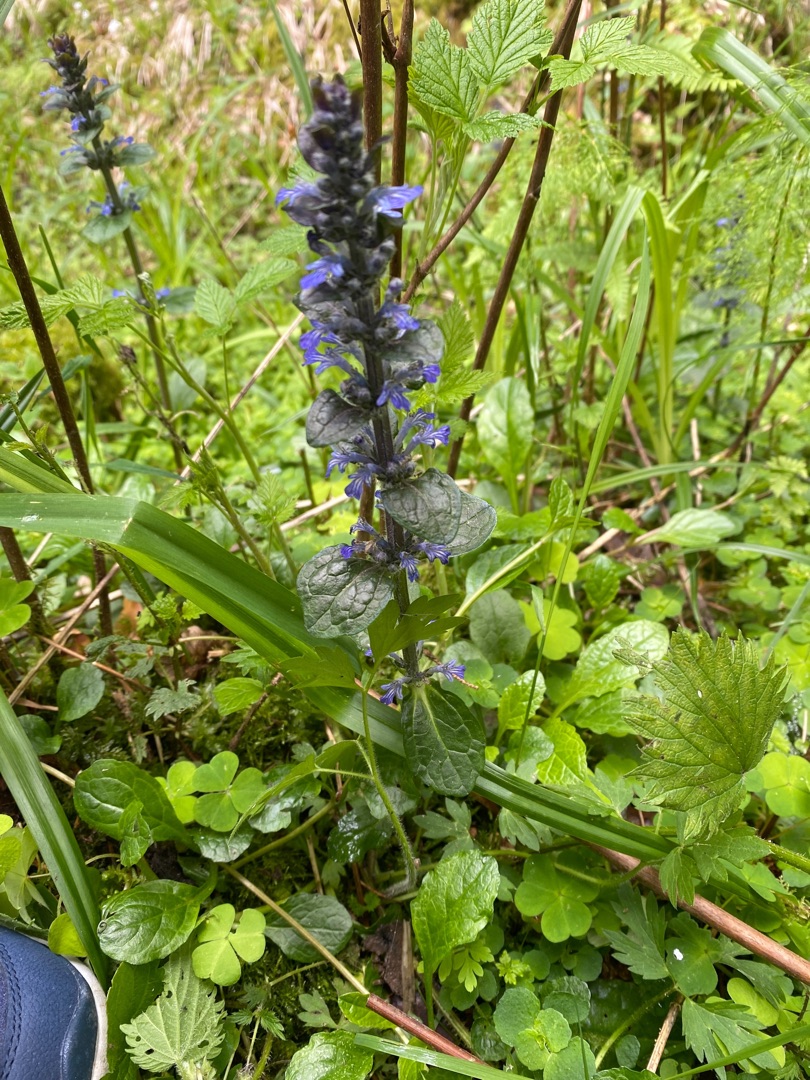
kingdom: Plantae
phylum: Tracheophyta
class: Magnoliopsida
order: Lamiales
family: Lamiaceae
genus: Ajuga
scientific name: Ajuga reptans
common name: Krybende læbeløs
